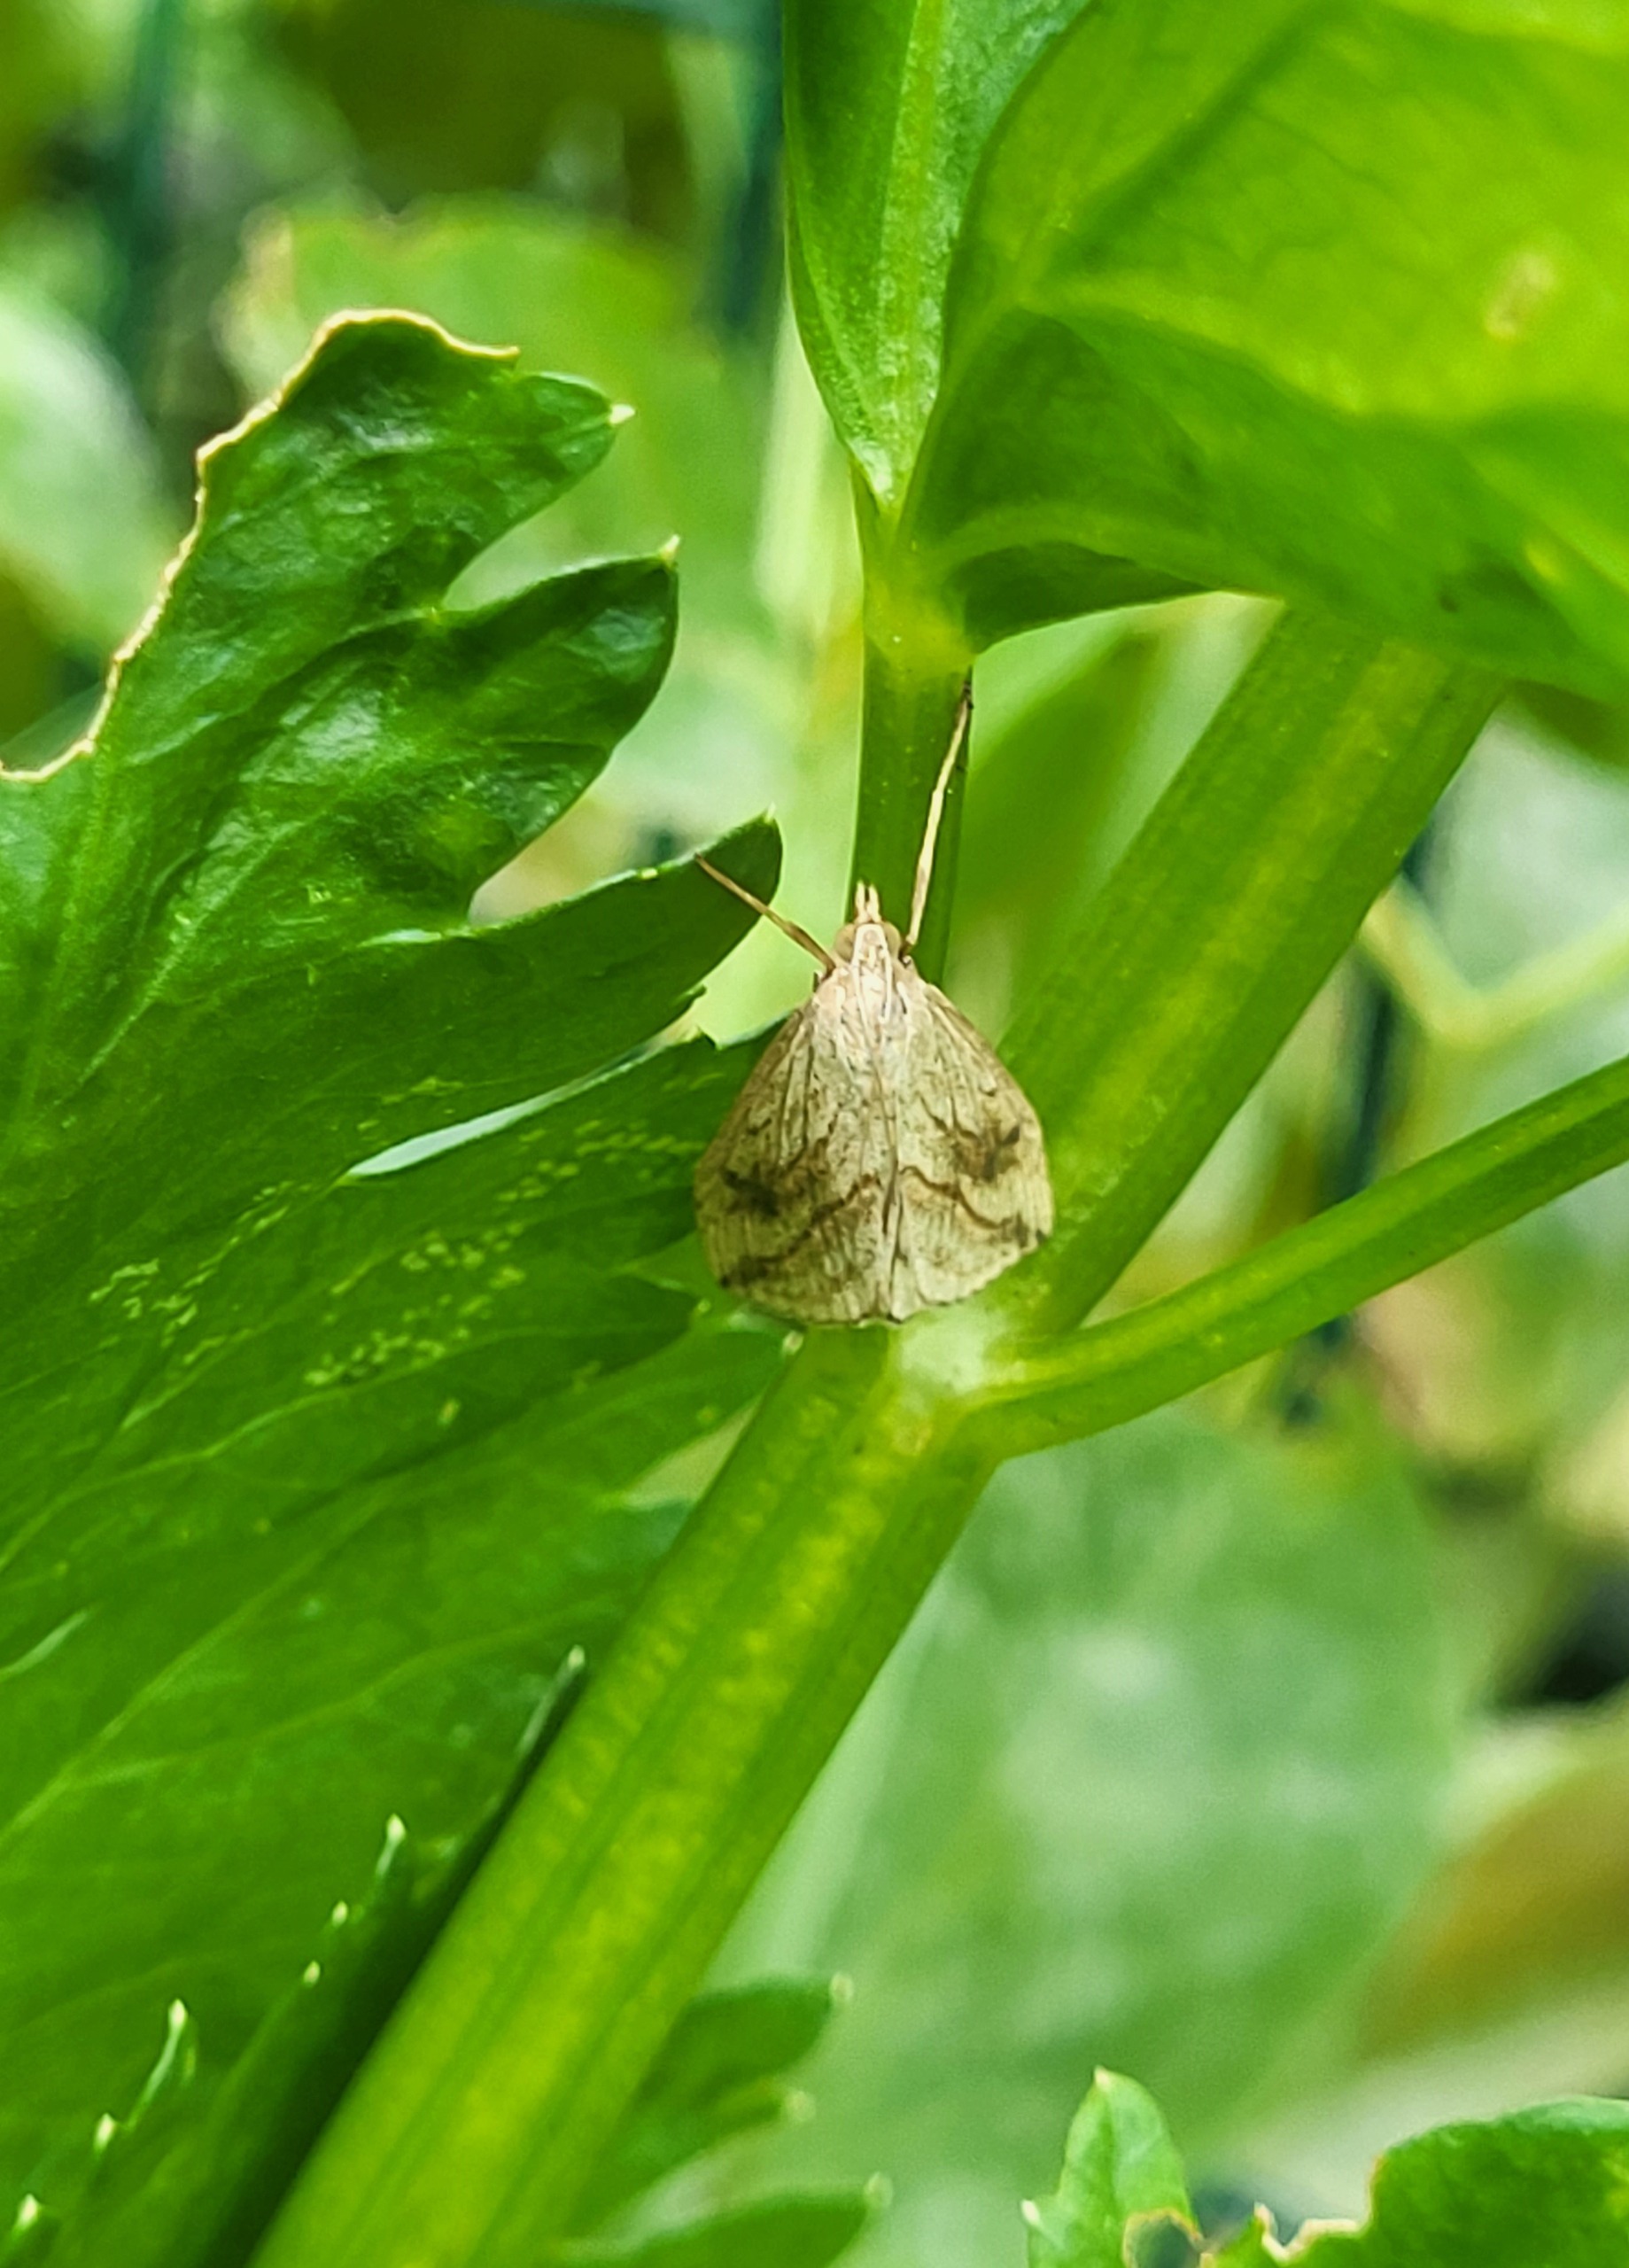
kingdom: Animalia
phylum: Arthropoda
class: Insecta
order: Lepidoptera
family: Crambidae
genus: Evergestis
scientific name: Evergestis forficalis
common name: Kålhalvmøl
